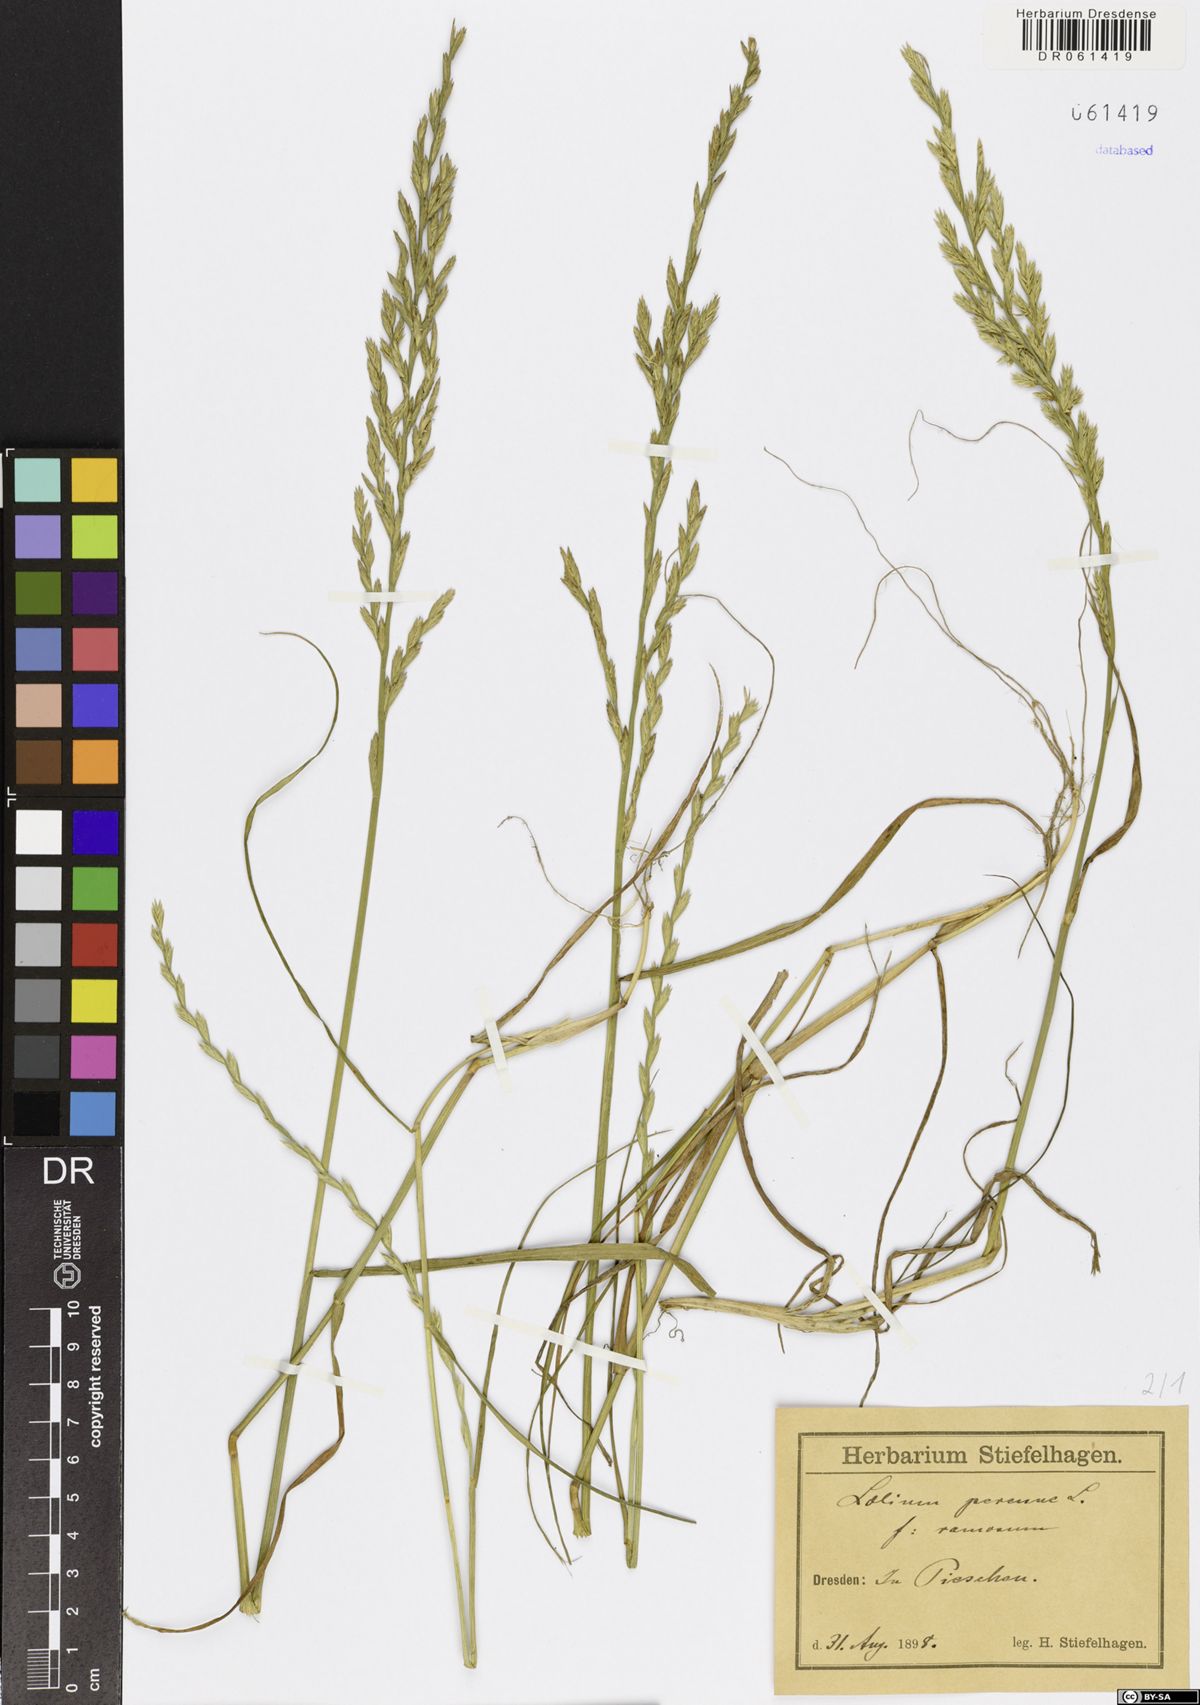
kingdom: Plantae
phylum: Tracheophyta
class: Liliopsida
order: Poales
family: Poaceae
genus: Lolium
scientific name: Lolium perenne
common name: Perennial ryegrass
